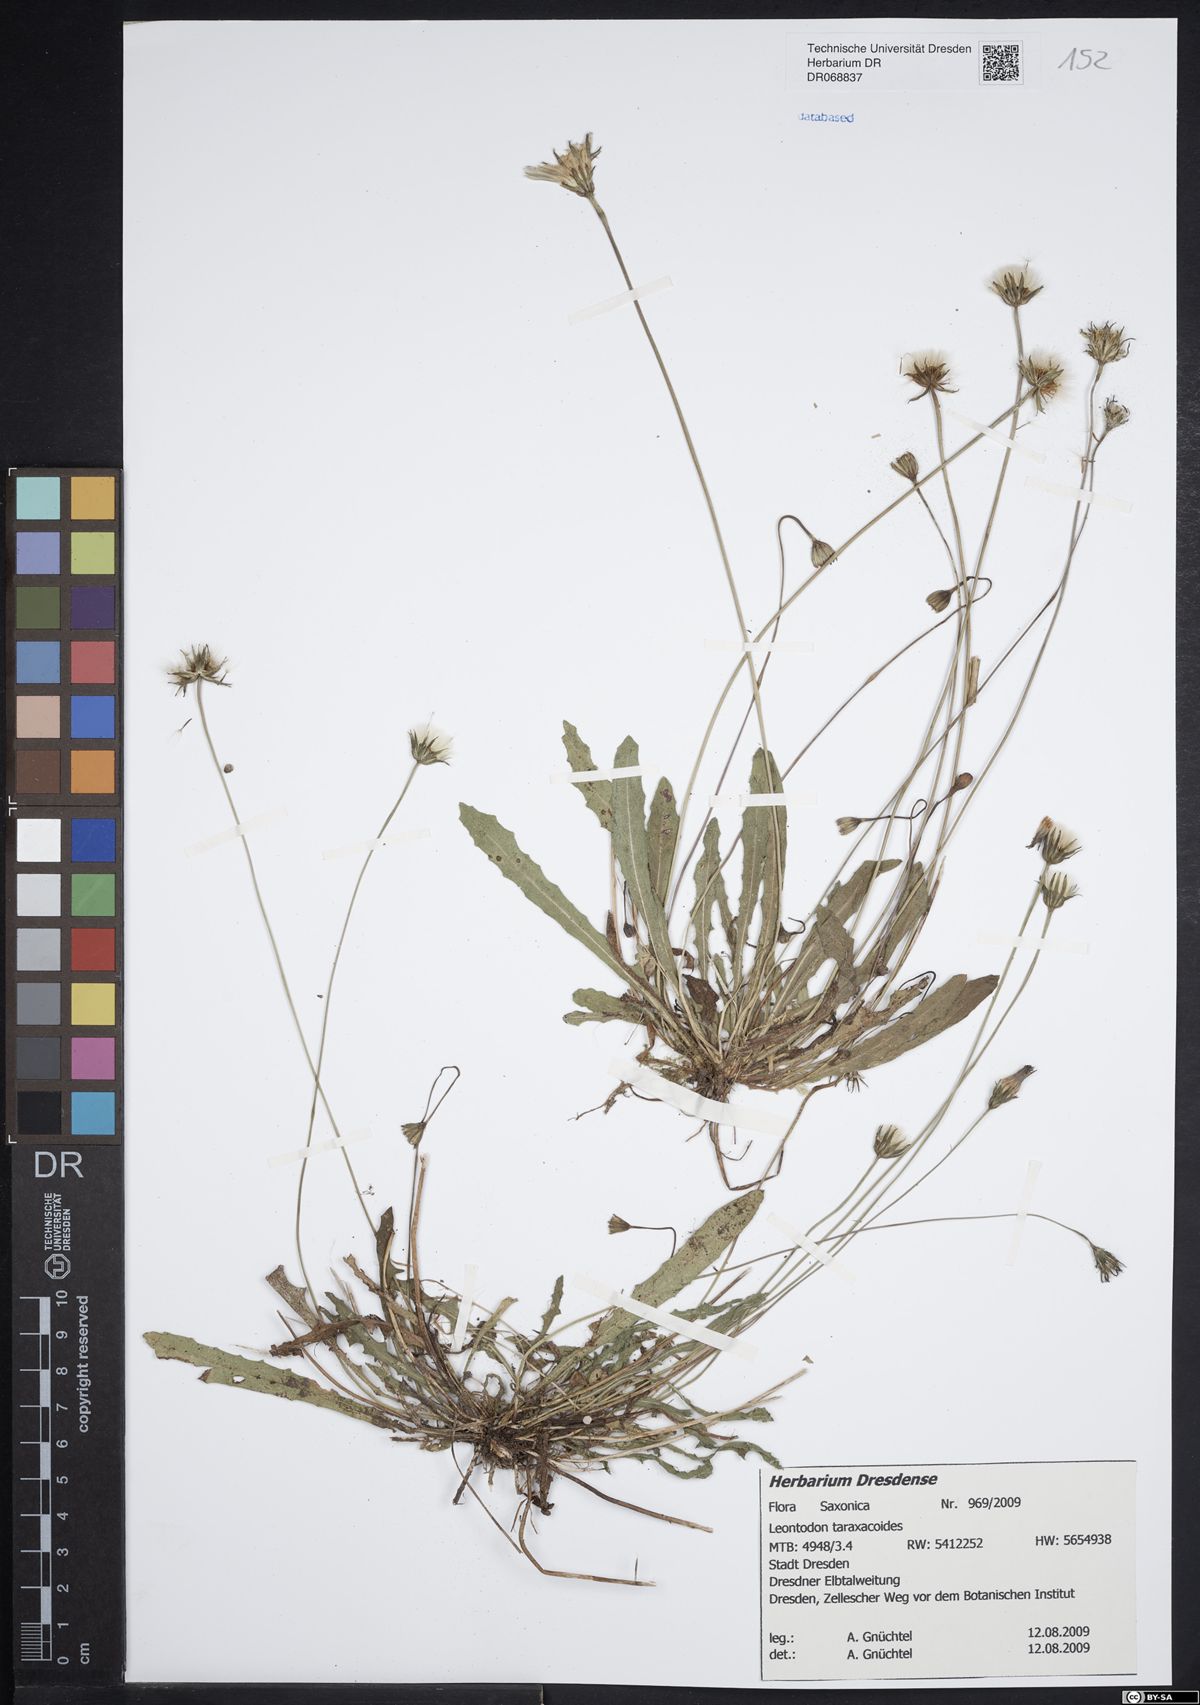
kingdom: Plantae
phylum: Tracheophyta
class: Magnoliopsida
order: Asterales
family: Asteraceae
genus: Thrincia
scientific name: Thrincia saxatilis
